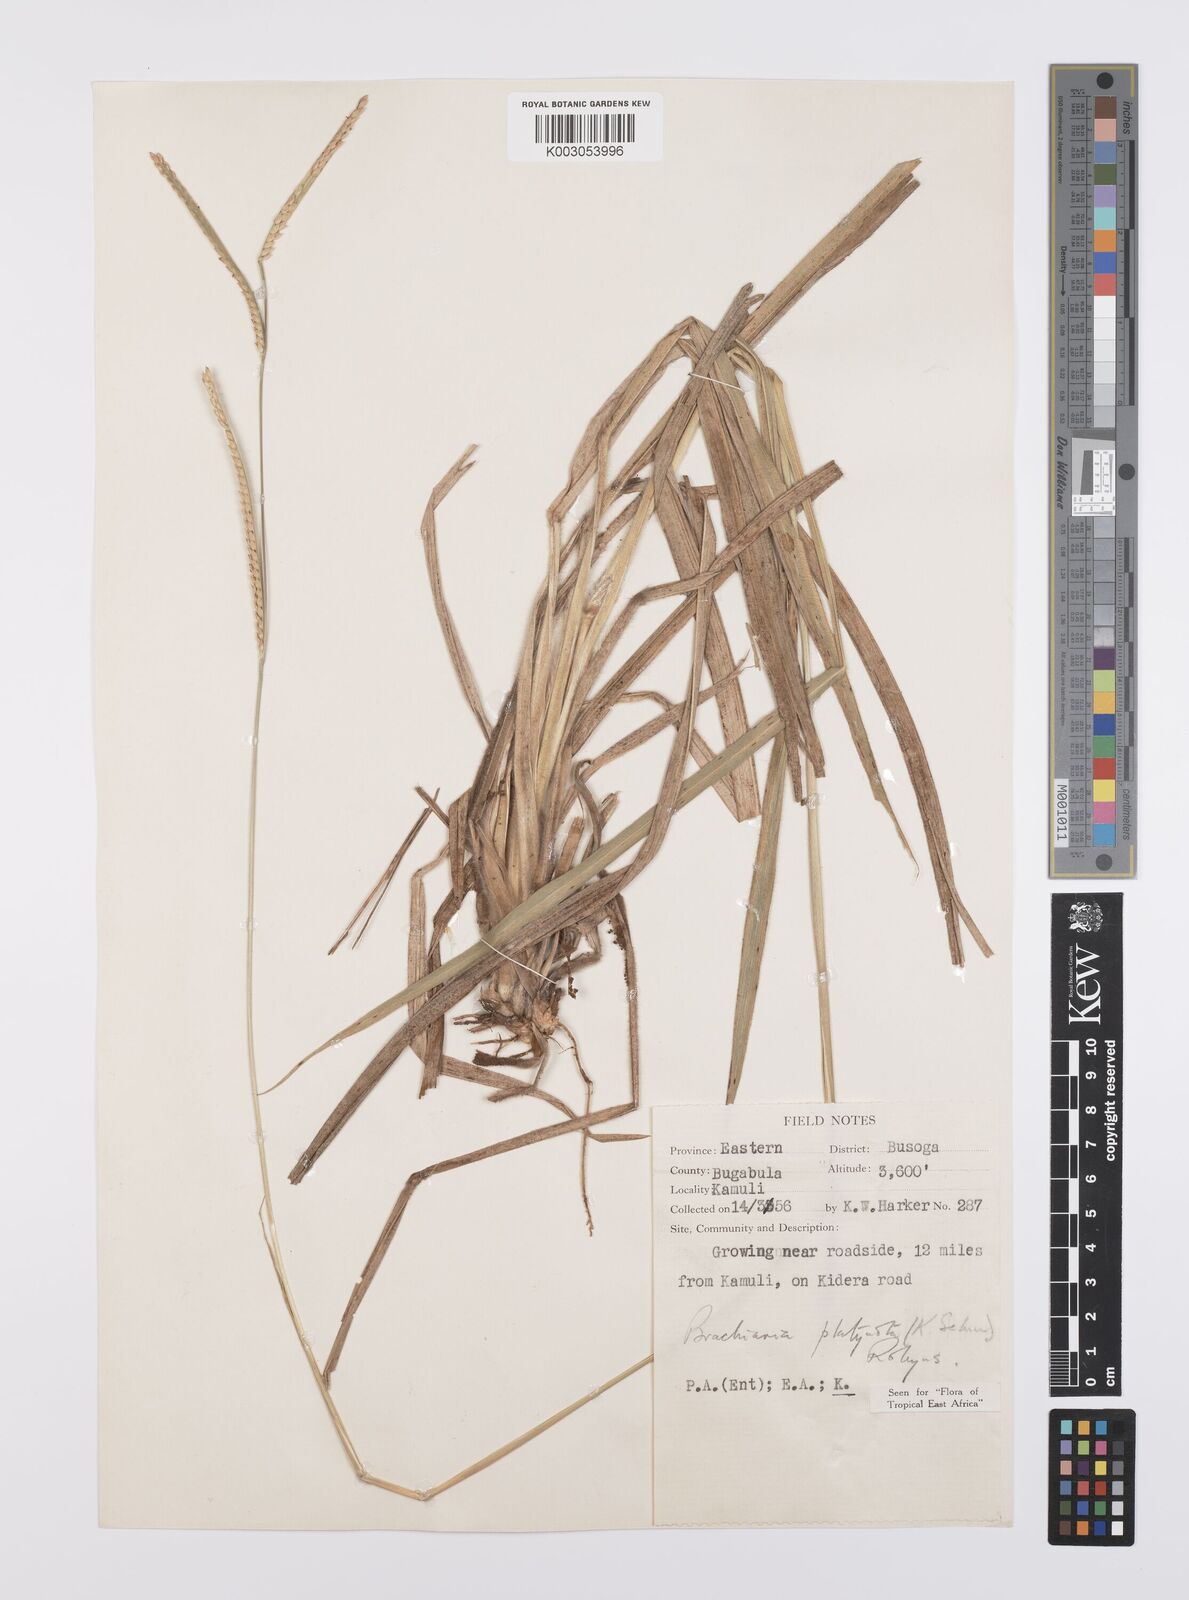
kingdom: Plantae
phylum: Tracheophyta
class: Liliopsida
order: Poales
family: Poaceae
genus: Urochloa
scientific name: Urochloa platynota
